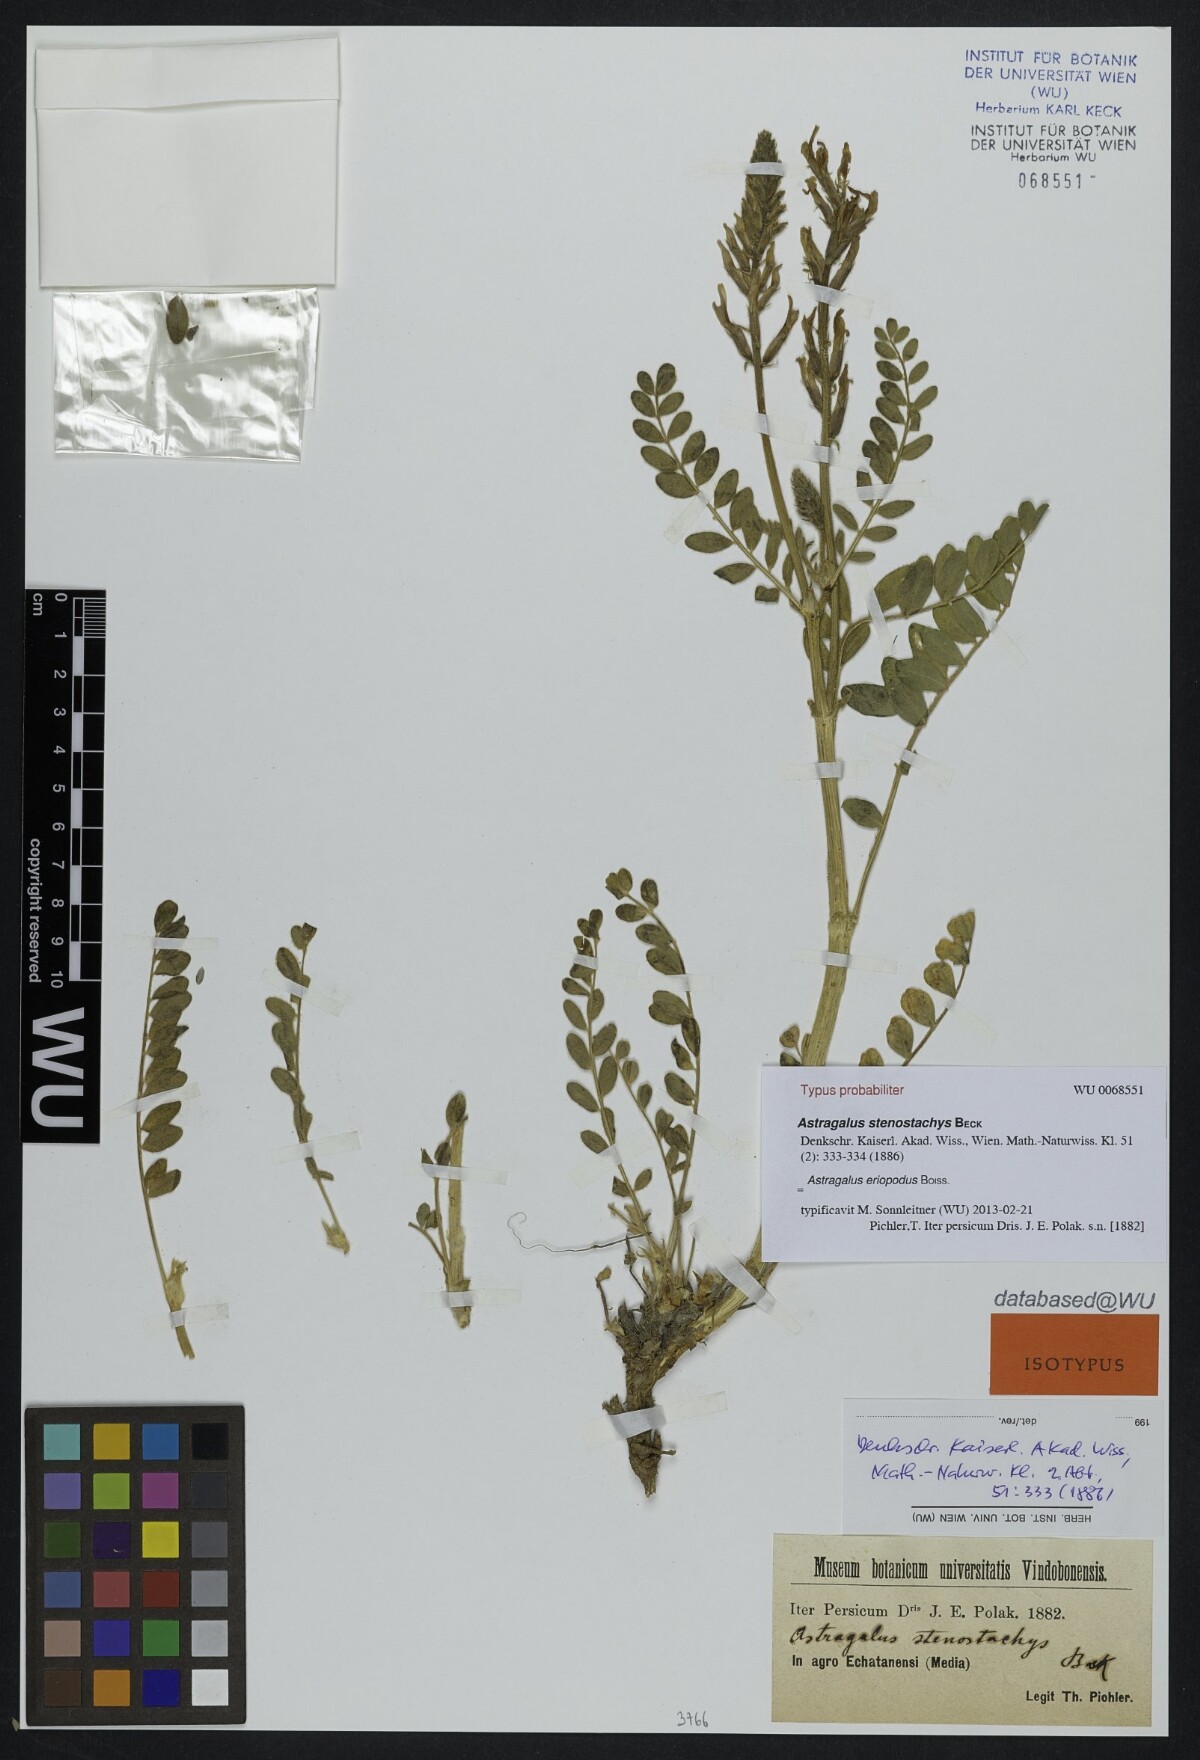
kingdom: Plantae
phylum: Tracheophyta
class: Magnoliopsida
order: Fabales
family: Fabaceae
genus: Astragalus
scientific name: Astragalus eriopodus
